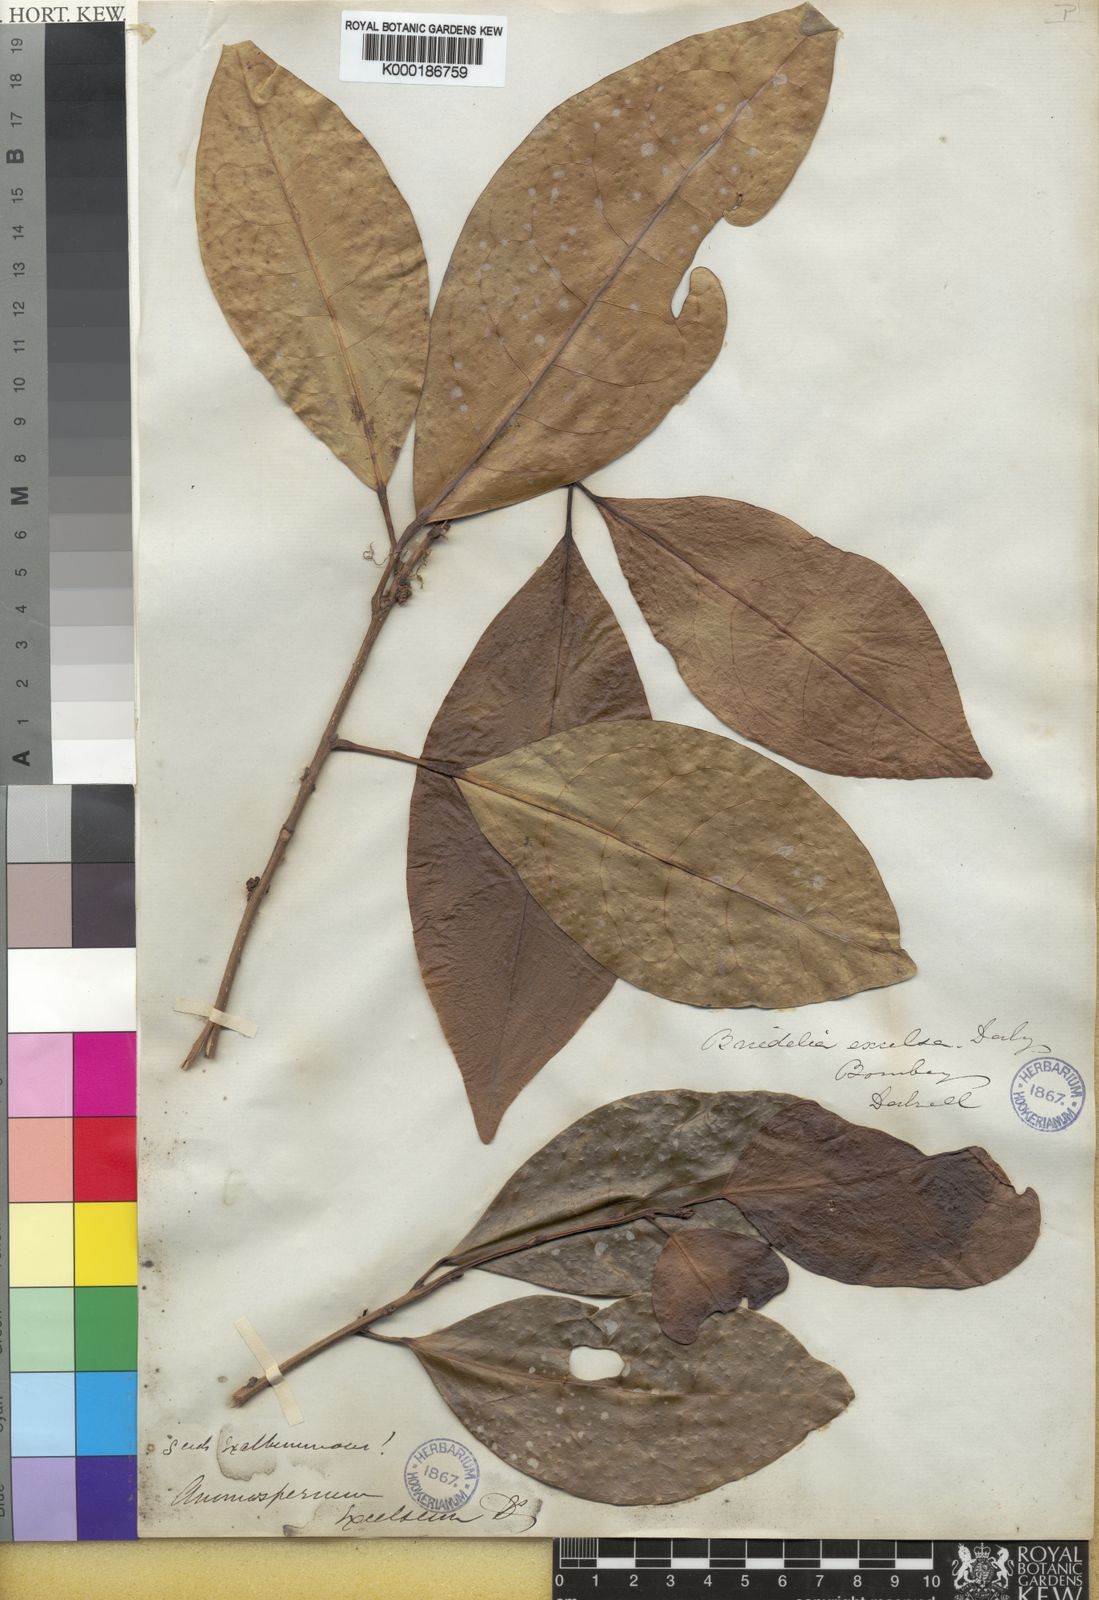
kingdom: Plantae
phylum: Tracheophyta
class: Magnoliopsida
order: Malpighiales
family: Phyllanthaceae
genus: Actephila
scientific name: Actephila
